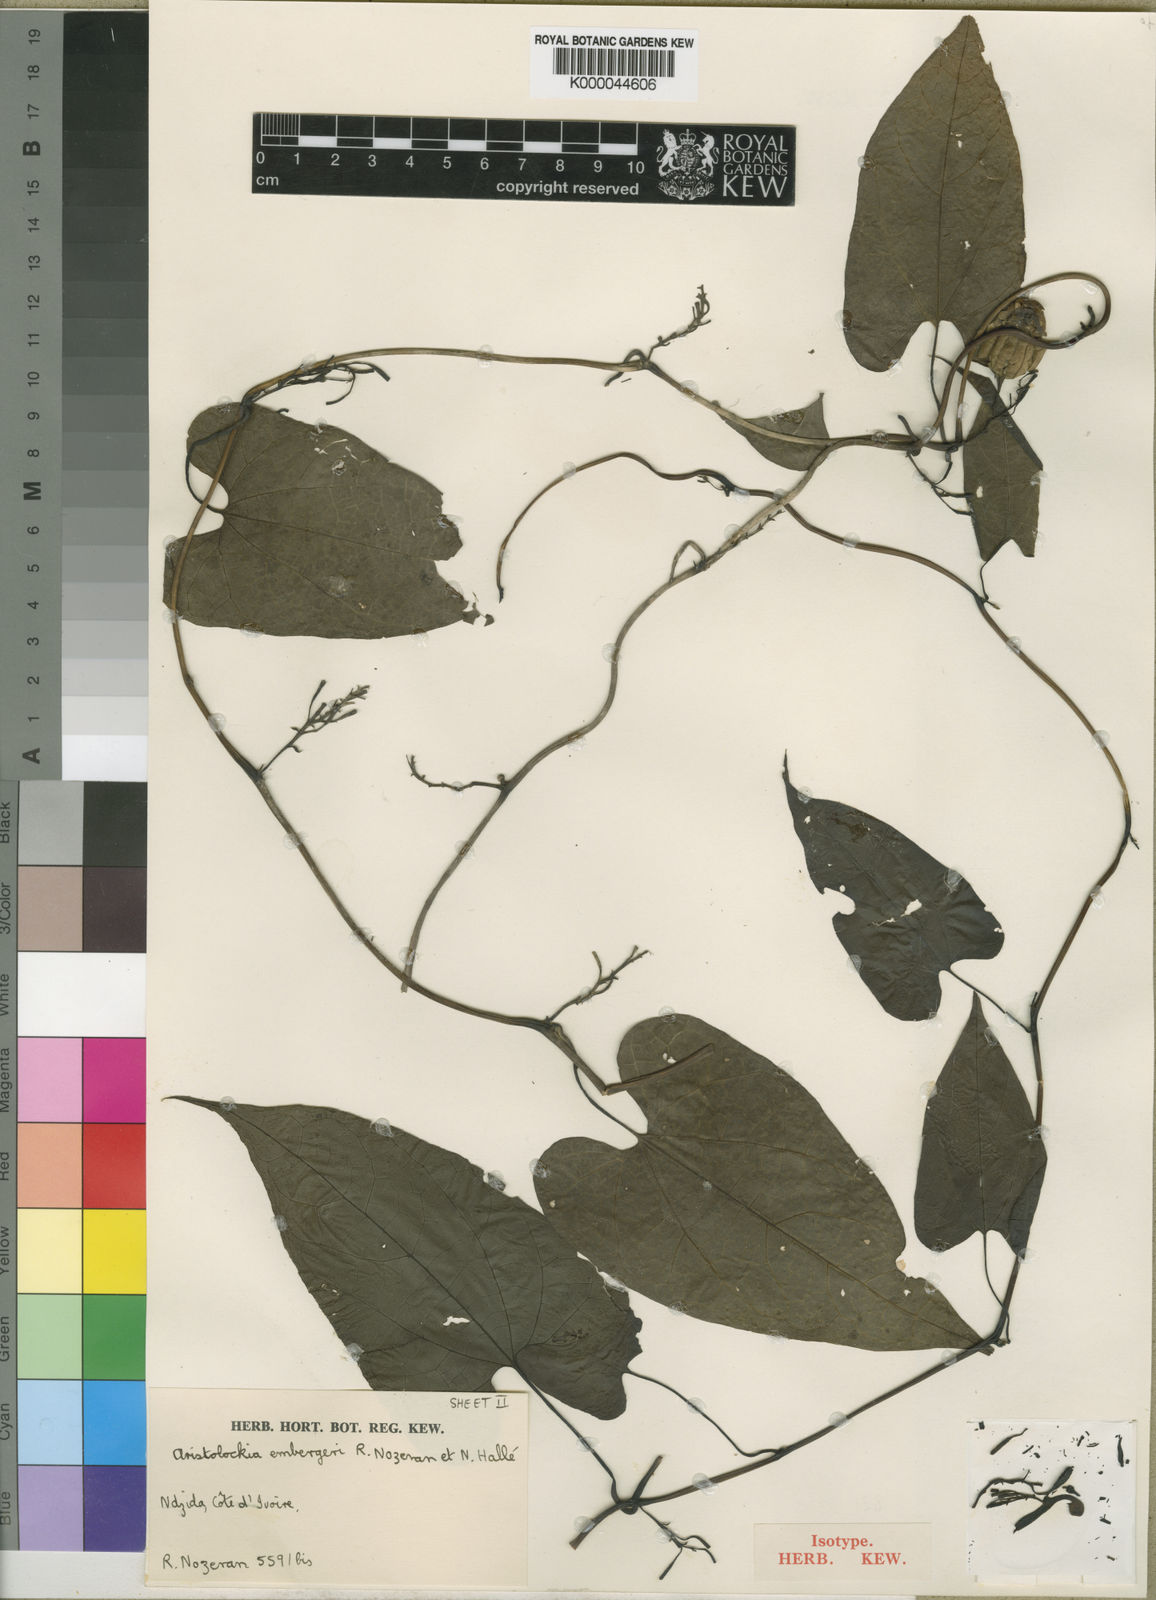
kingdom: Plantae
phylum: Tracheophyta
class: Magnoliopsida
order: Piperales
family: Aristolochiaceae
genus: Aristolochia
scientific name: Aristolochia
